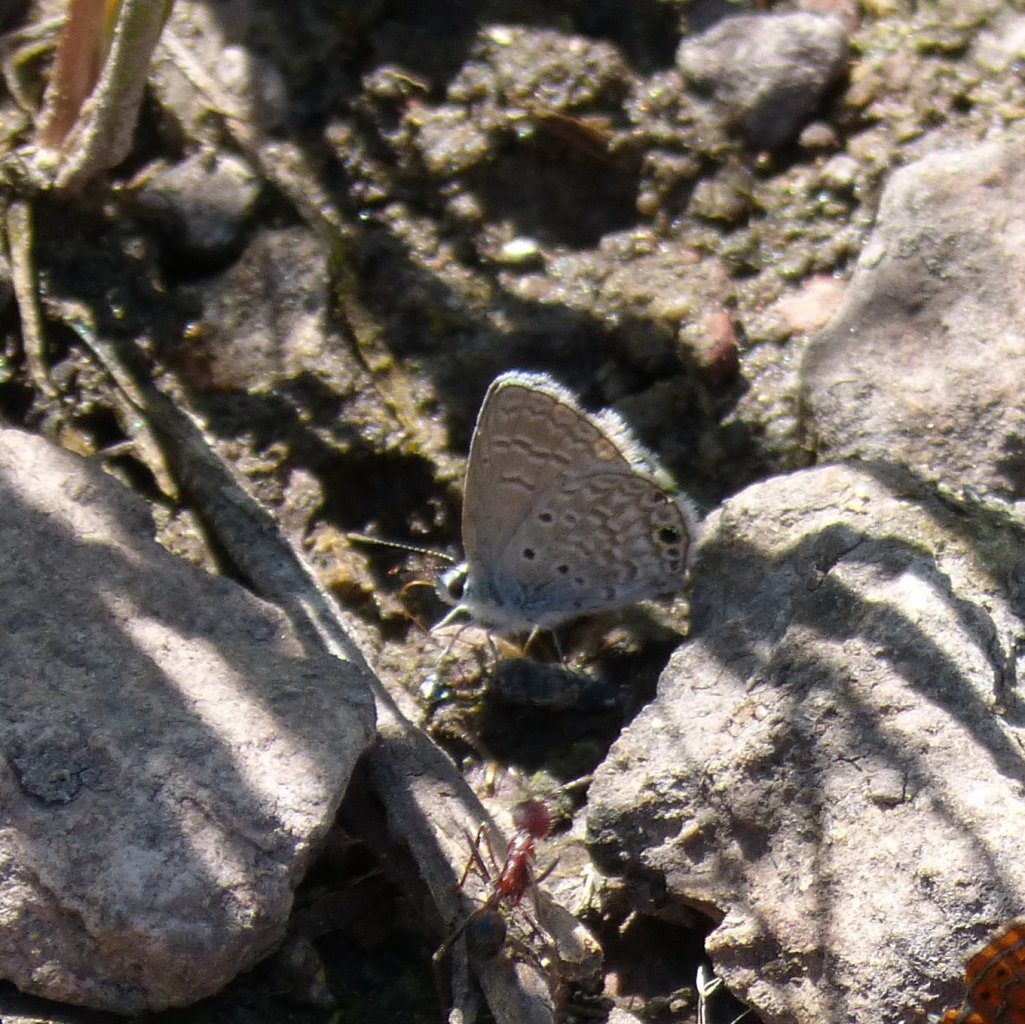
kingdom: Animalia
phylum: Arthropoda
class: Insecta
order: Lepidoptera
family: Lycaenidae
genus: Hemiargus
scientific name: Hemiargus ceraunus
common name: Ceraunus Blue
